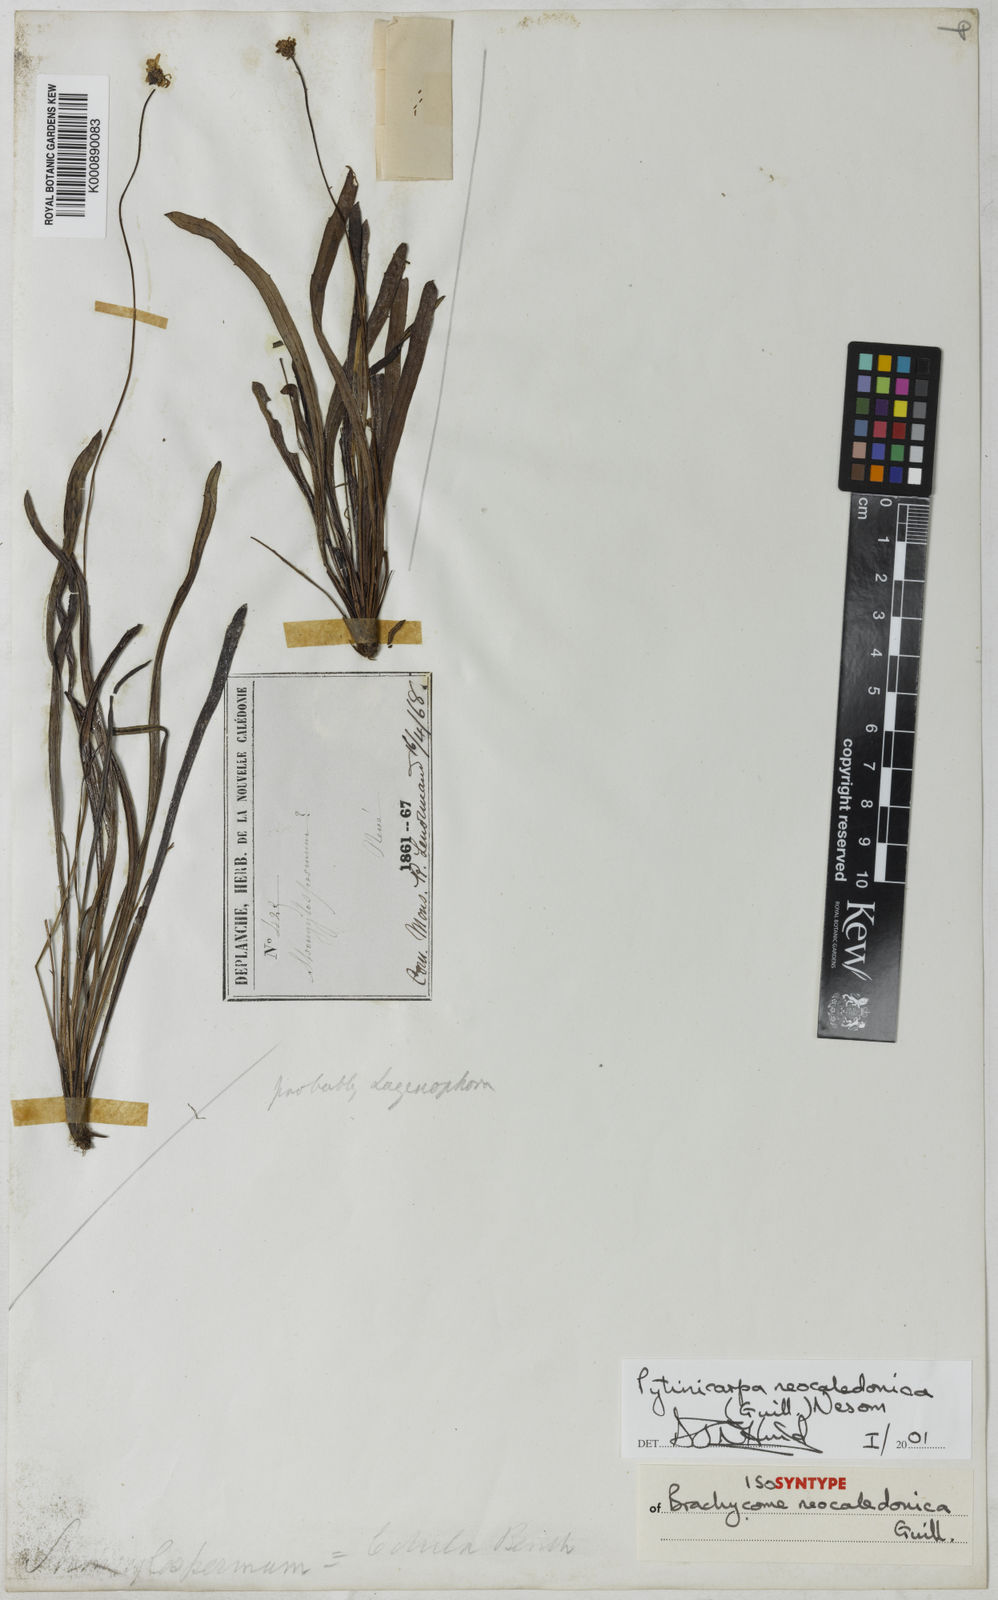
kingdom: Plantae
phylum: Tracheophyta
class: Magnoliopsida
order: Asterales
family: Asteraceae
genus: Pytinicarpa
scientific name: Pytinicarpa
